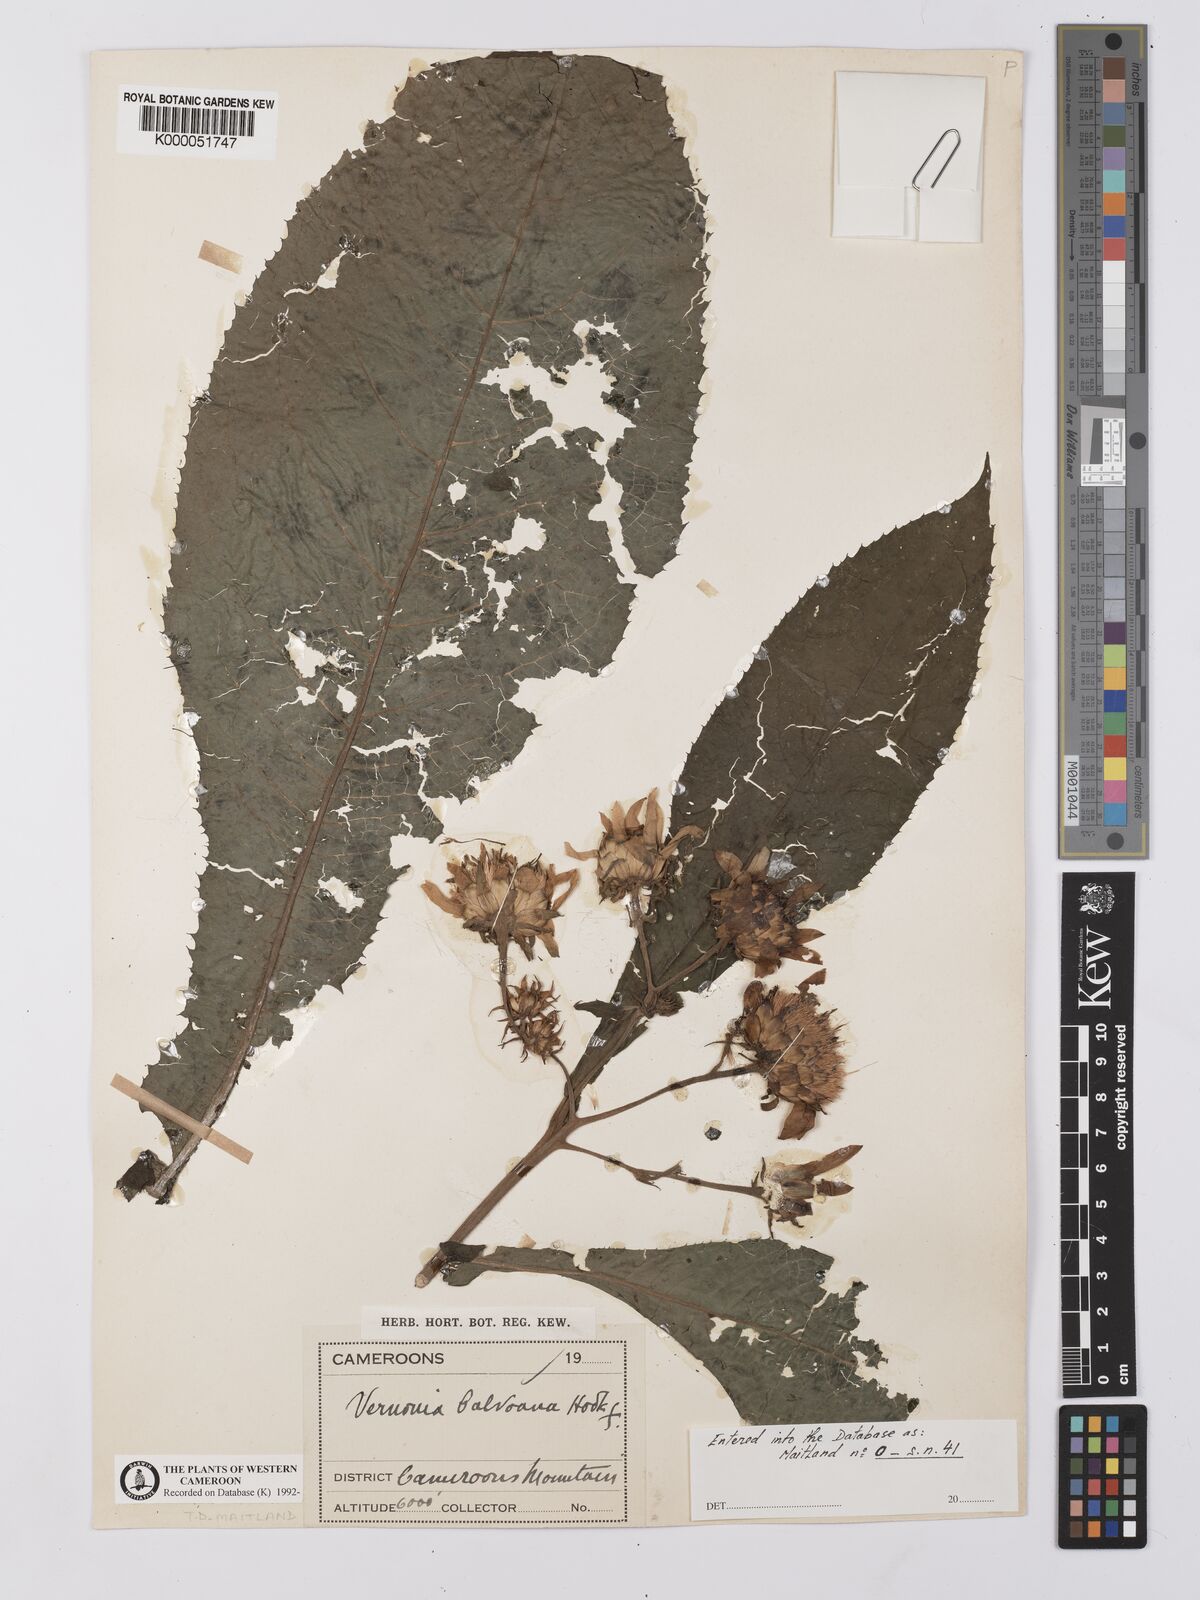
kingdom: Plantae
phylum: Tracheophyta
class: Magnoliopsida
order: Asterales
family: Asteraceae
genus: Baccharoides
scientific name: Baccharoides hymenolepis
